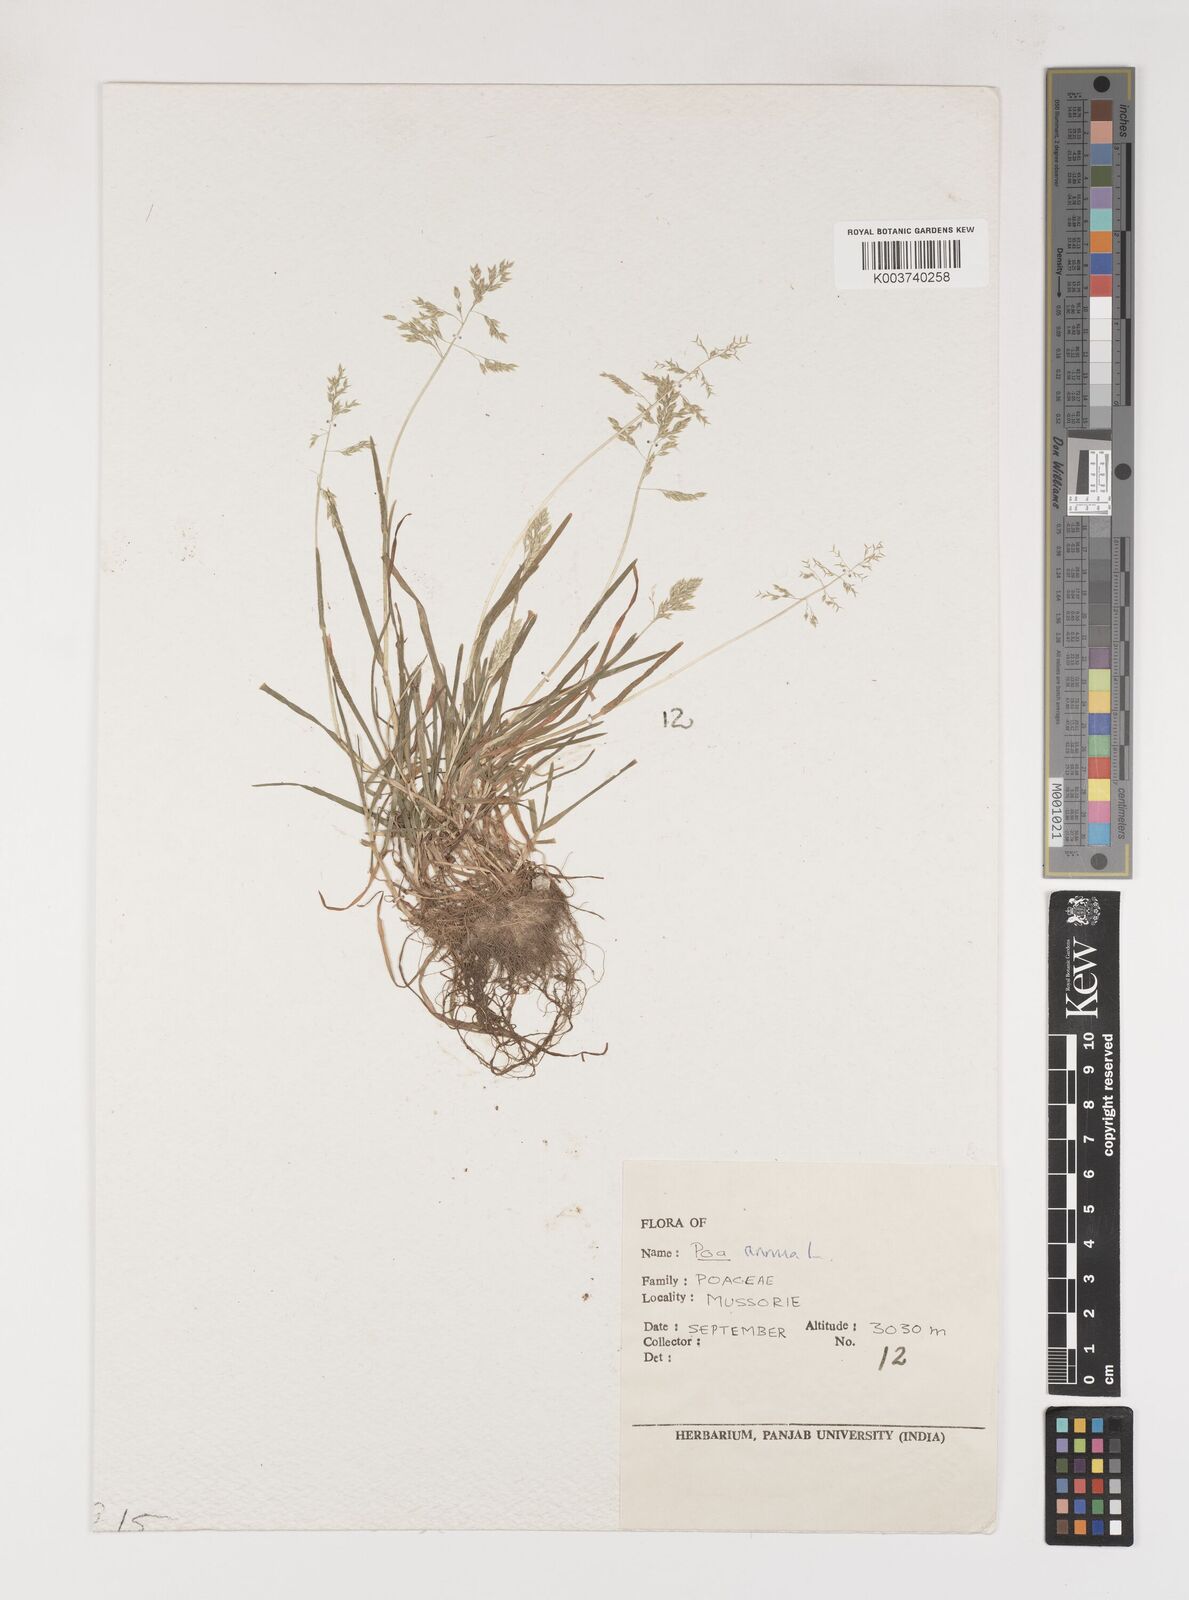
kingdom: Plantae
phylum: Tracheophyta
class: Liliopsida
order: Poales
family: Poaceae
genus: Poa
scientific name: Poa annua
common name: Annual bluegrass
